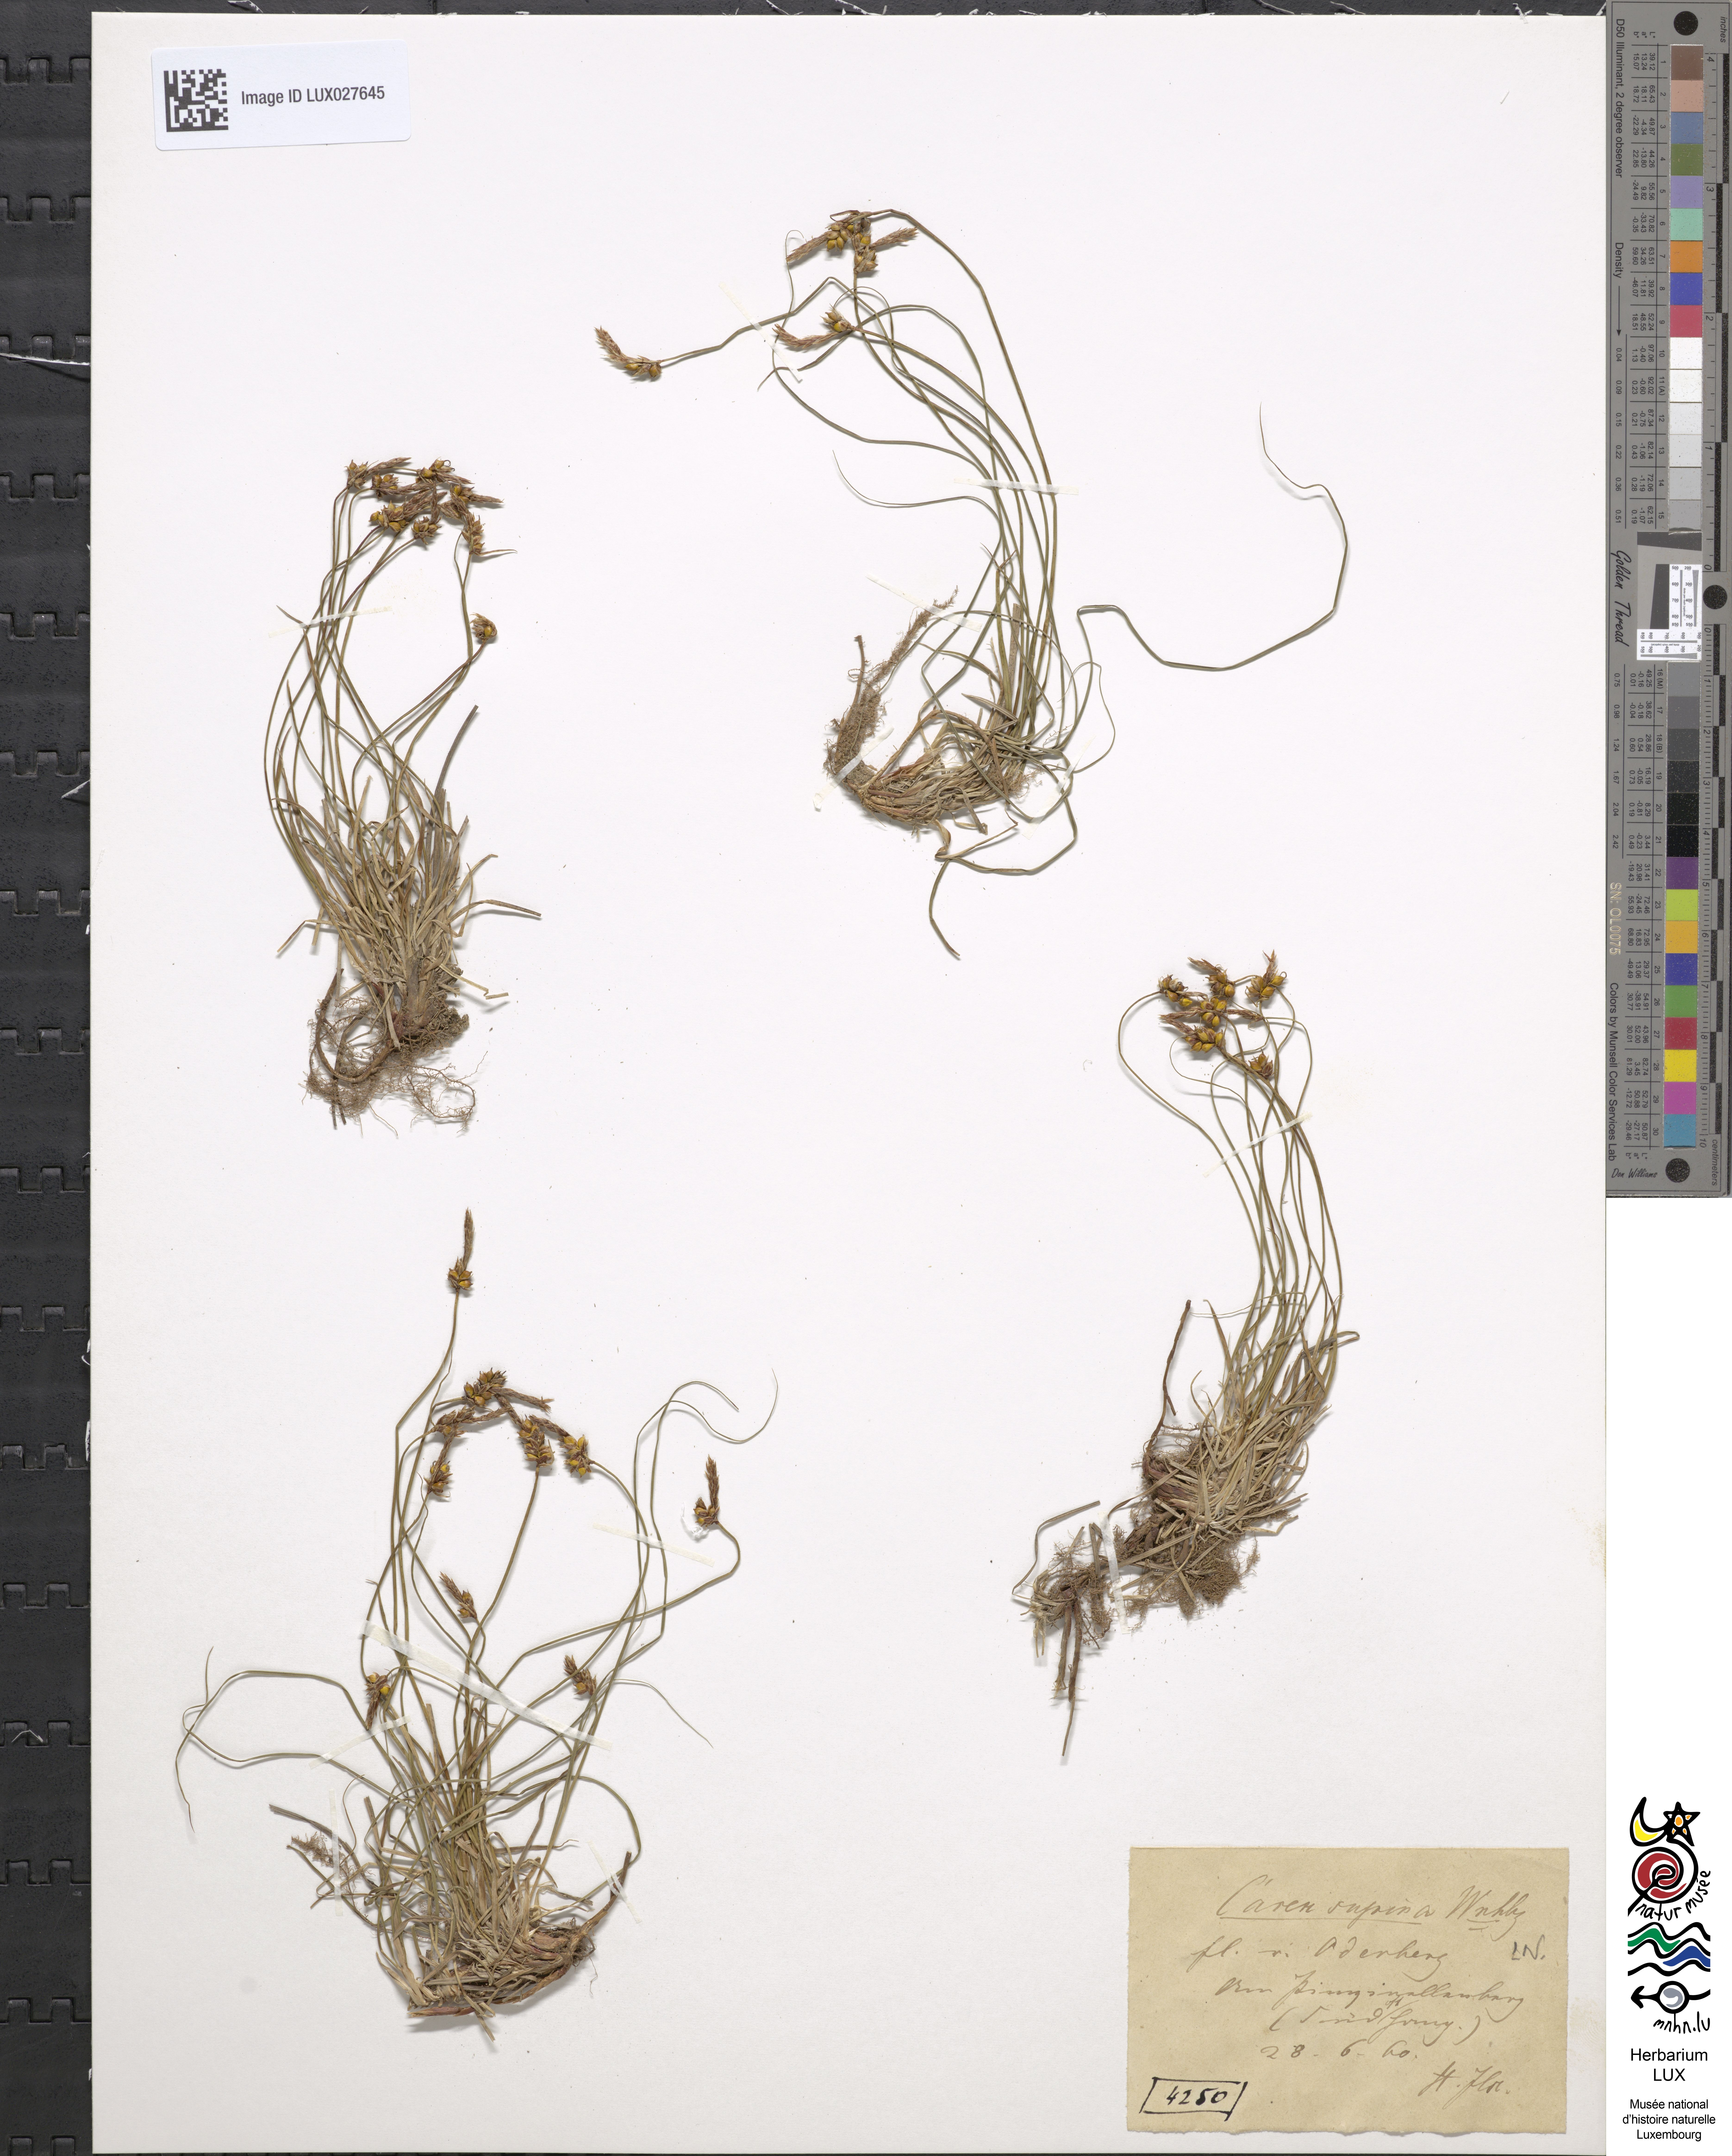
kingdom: Plantae
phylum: Tracheophyta
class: Liliopsida
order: Poales
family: Cyperaceae
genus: Carex
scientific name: Carex supina
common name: Lying-back sedge
